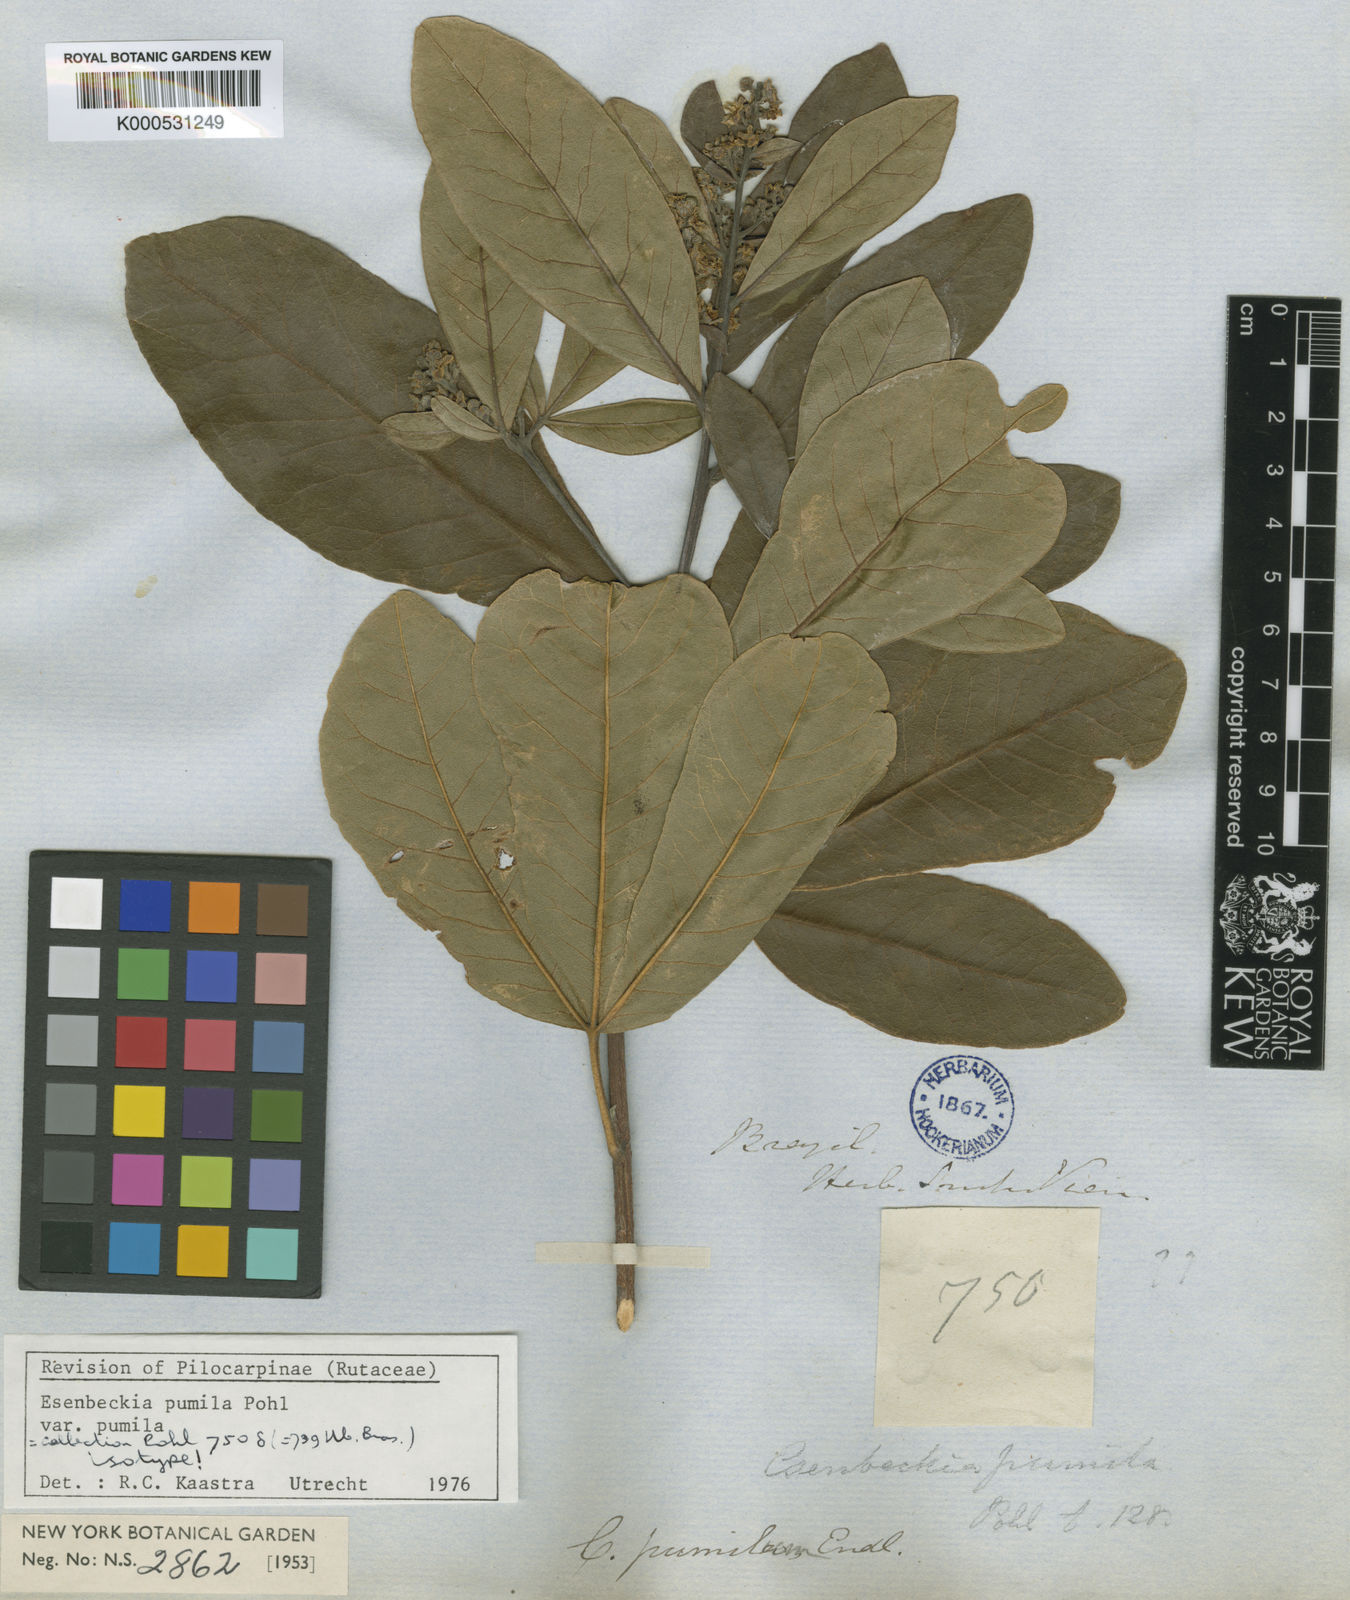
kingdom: Plantae
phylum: Tracheophyta
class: Magnoliopsida
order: Sapindales
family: Rutaceae
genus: Esenbeckia
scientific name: Esenbeckia pumila
